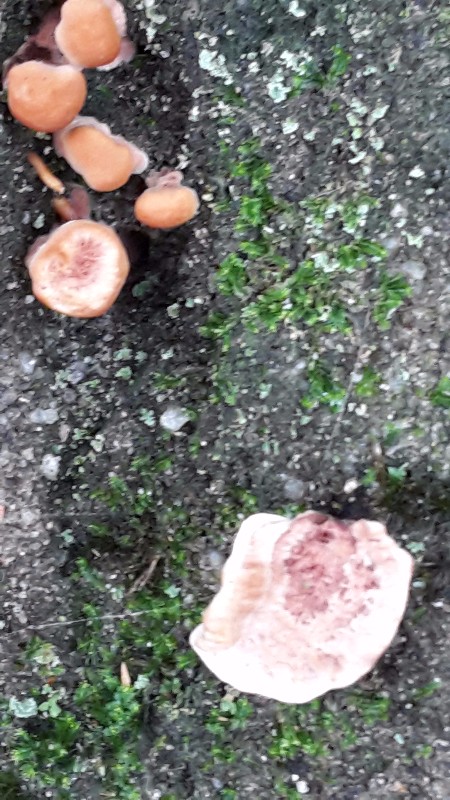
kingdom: Fungi
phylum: Basidiomycota
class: Agaricomycetes
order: Thelephorales
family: Bankeraceae
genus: Hydnellum
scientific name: Hydnellum concrescens
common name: bæltet korkpigsvamp
